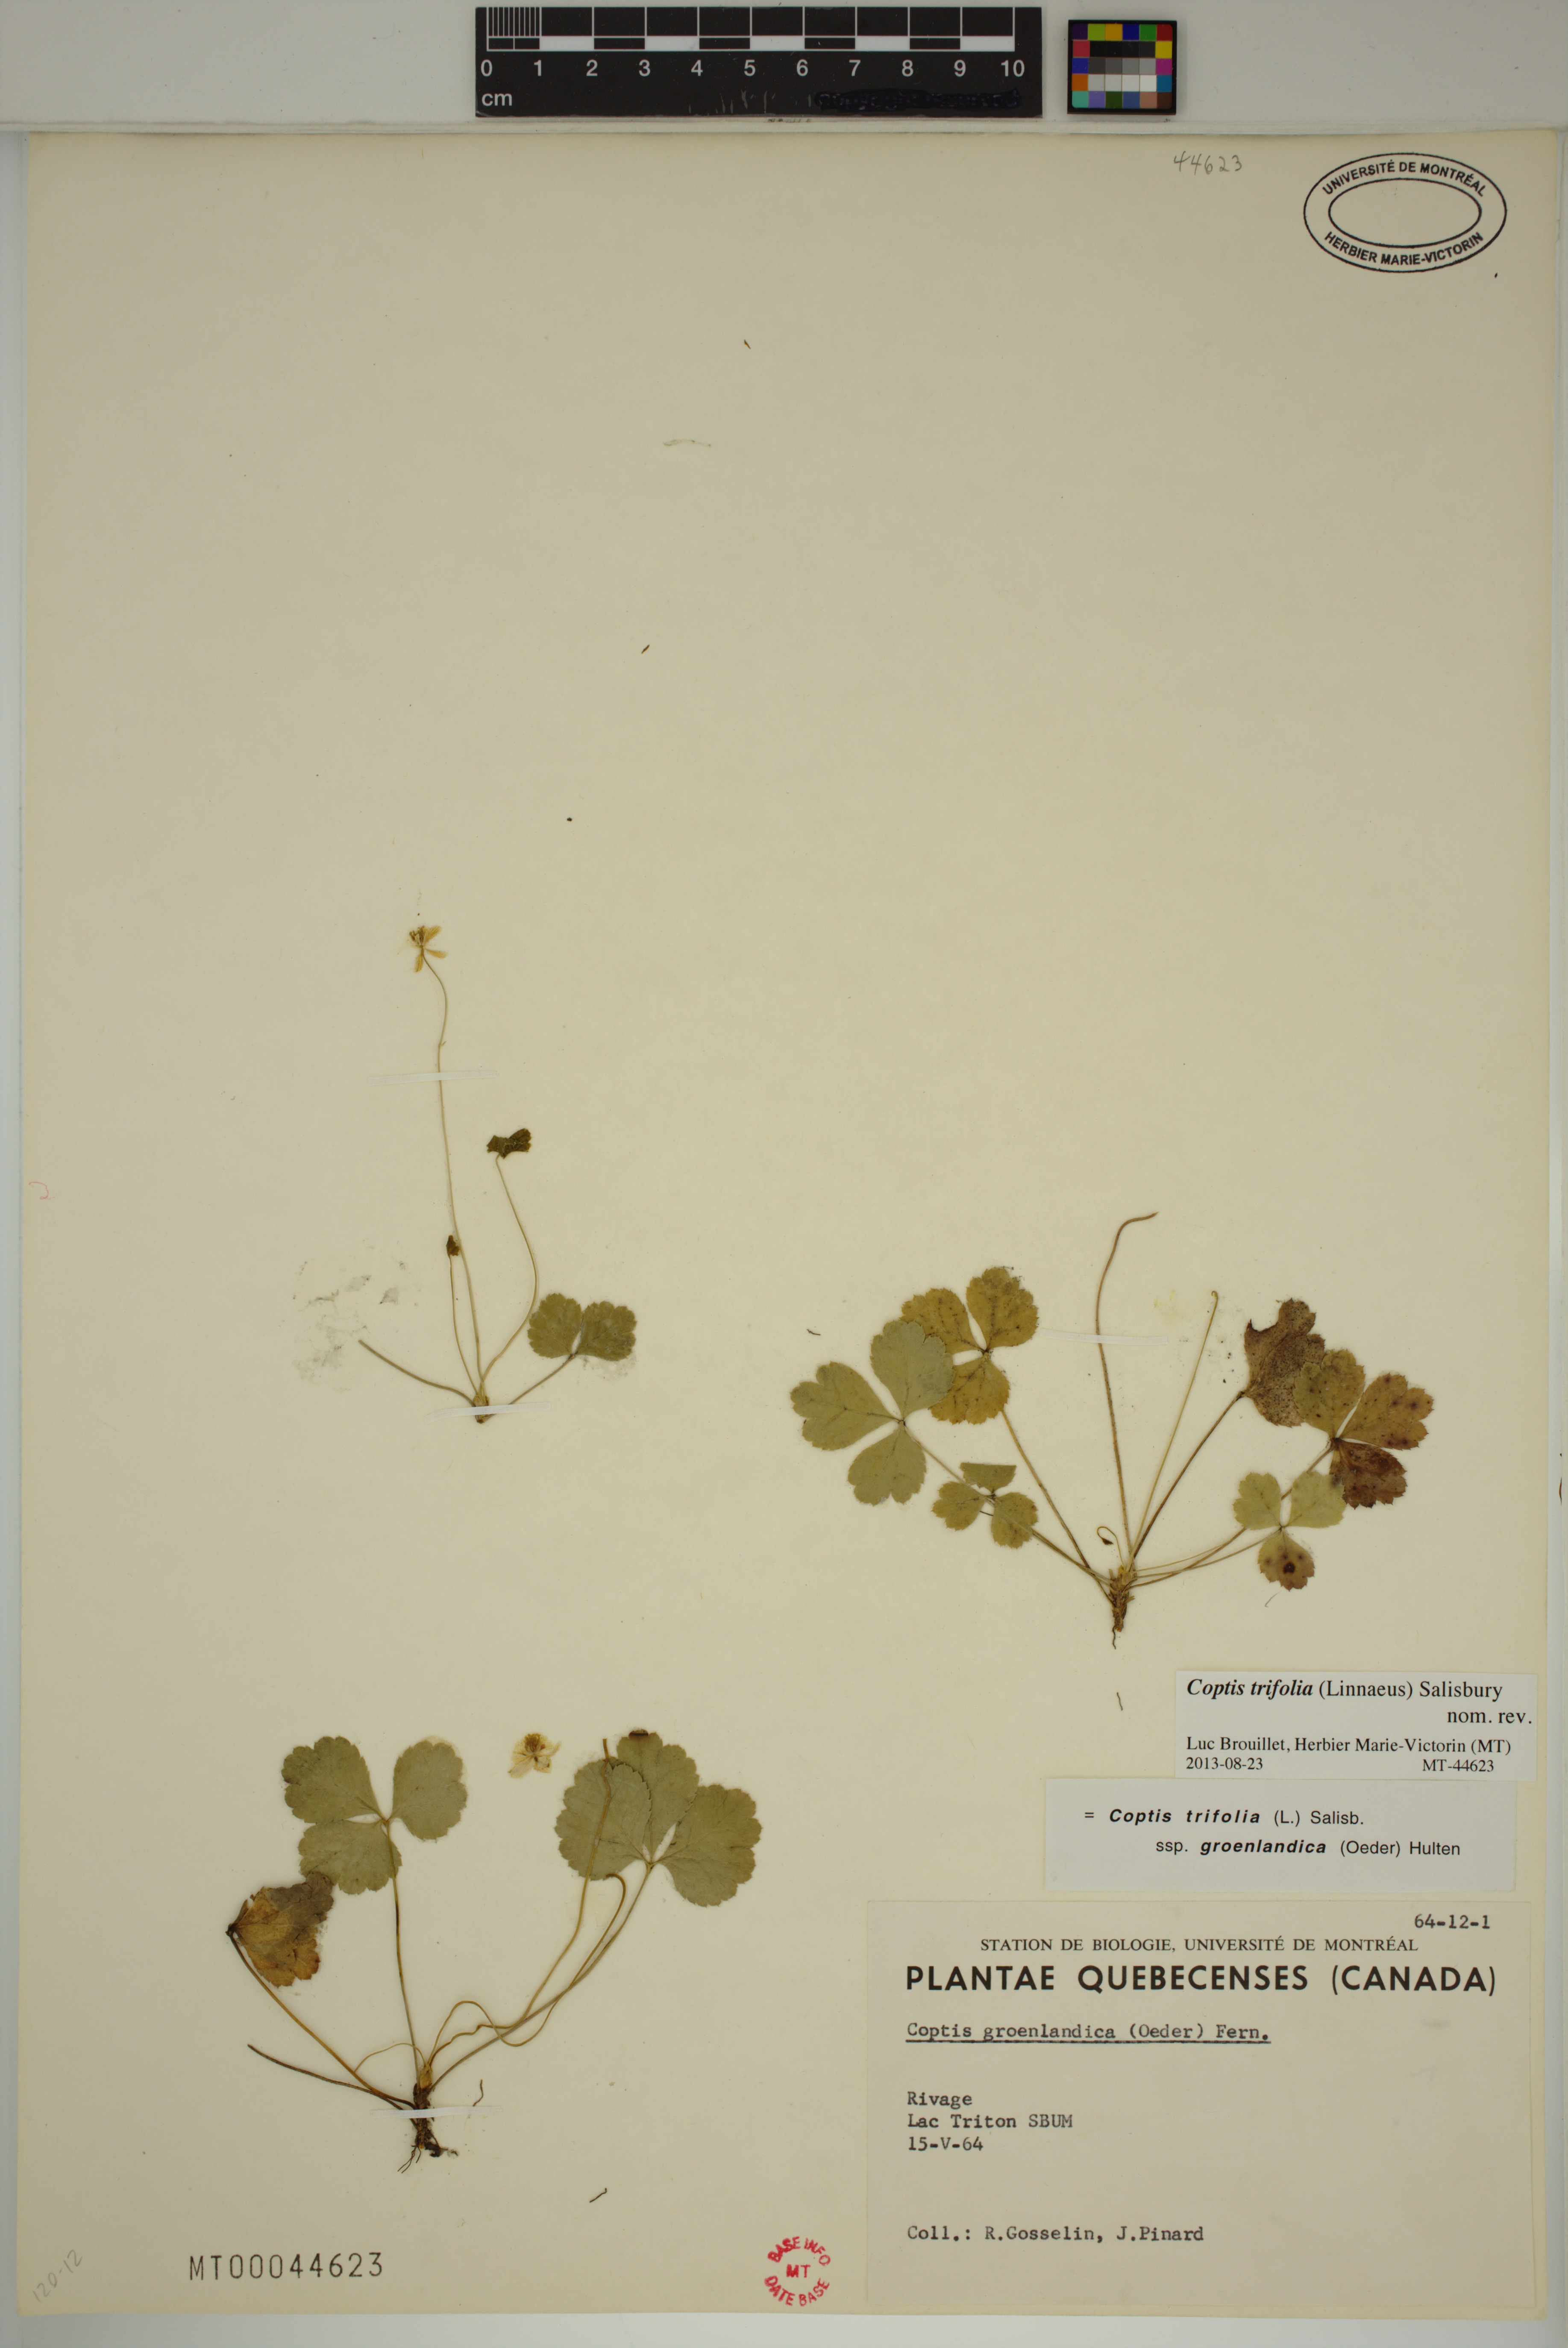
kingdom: Plantae
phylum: Tracheophyta
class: Magnoliopsida
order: Ranunculales
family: Ranunculaceae
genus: Coptis
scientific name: Coptis trifolia
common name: Canker-root
